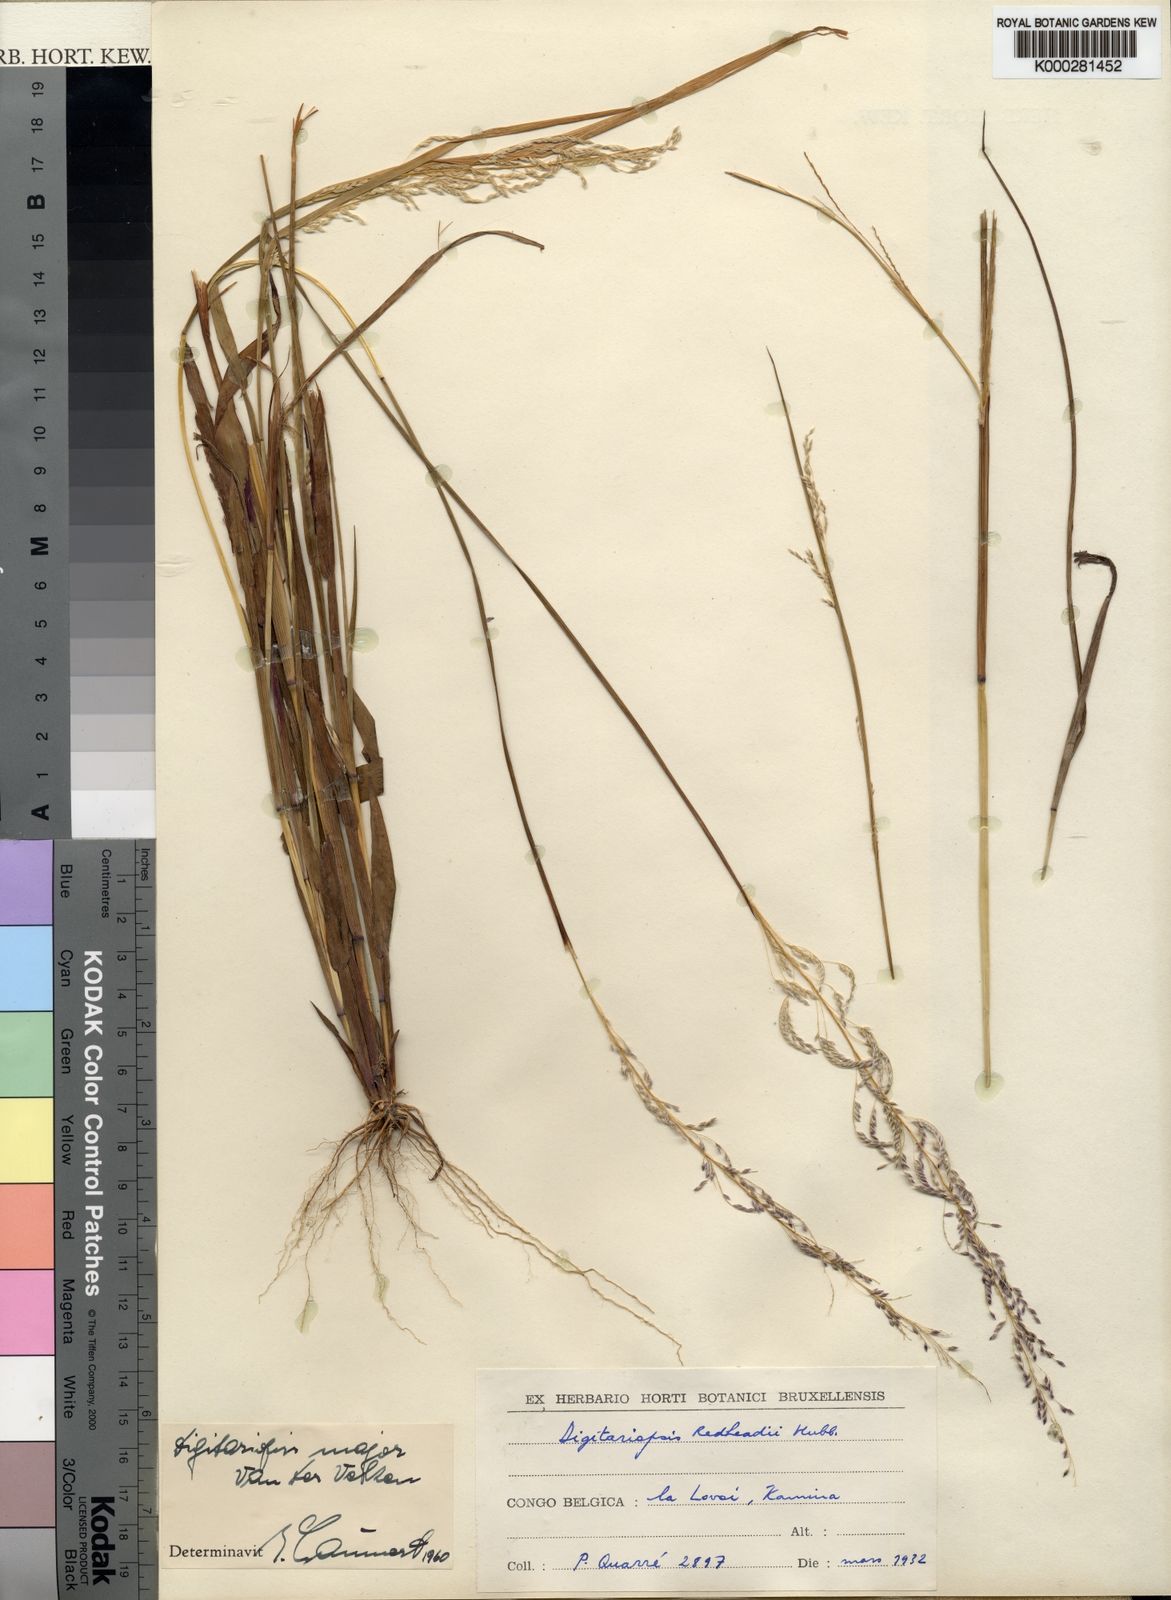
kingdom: Plantae
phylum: Tracheophyta
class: Liliopsida
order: Poales
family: Poaceae
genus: Digitaria
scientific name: Digitaria poggeana
